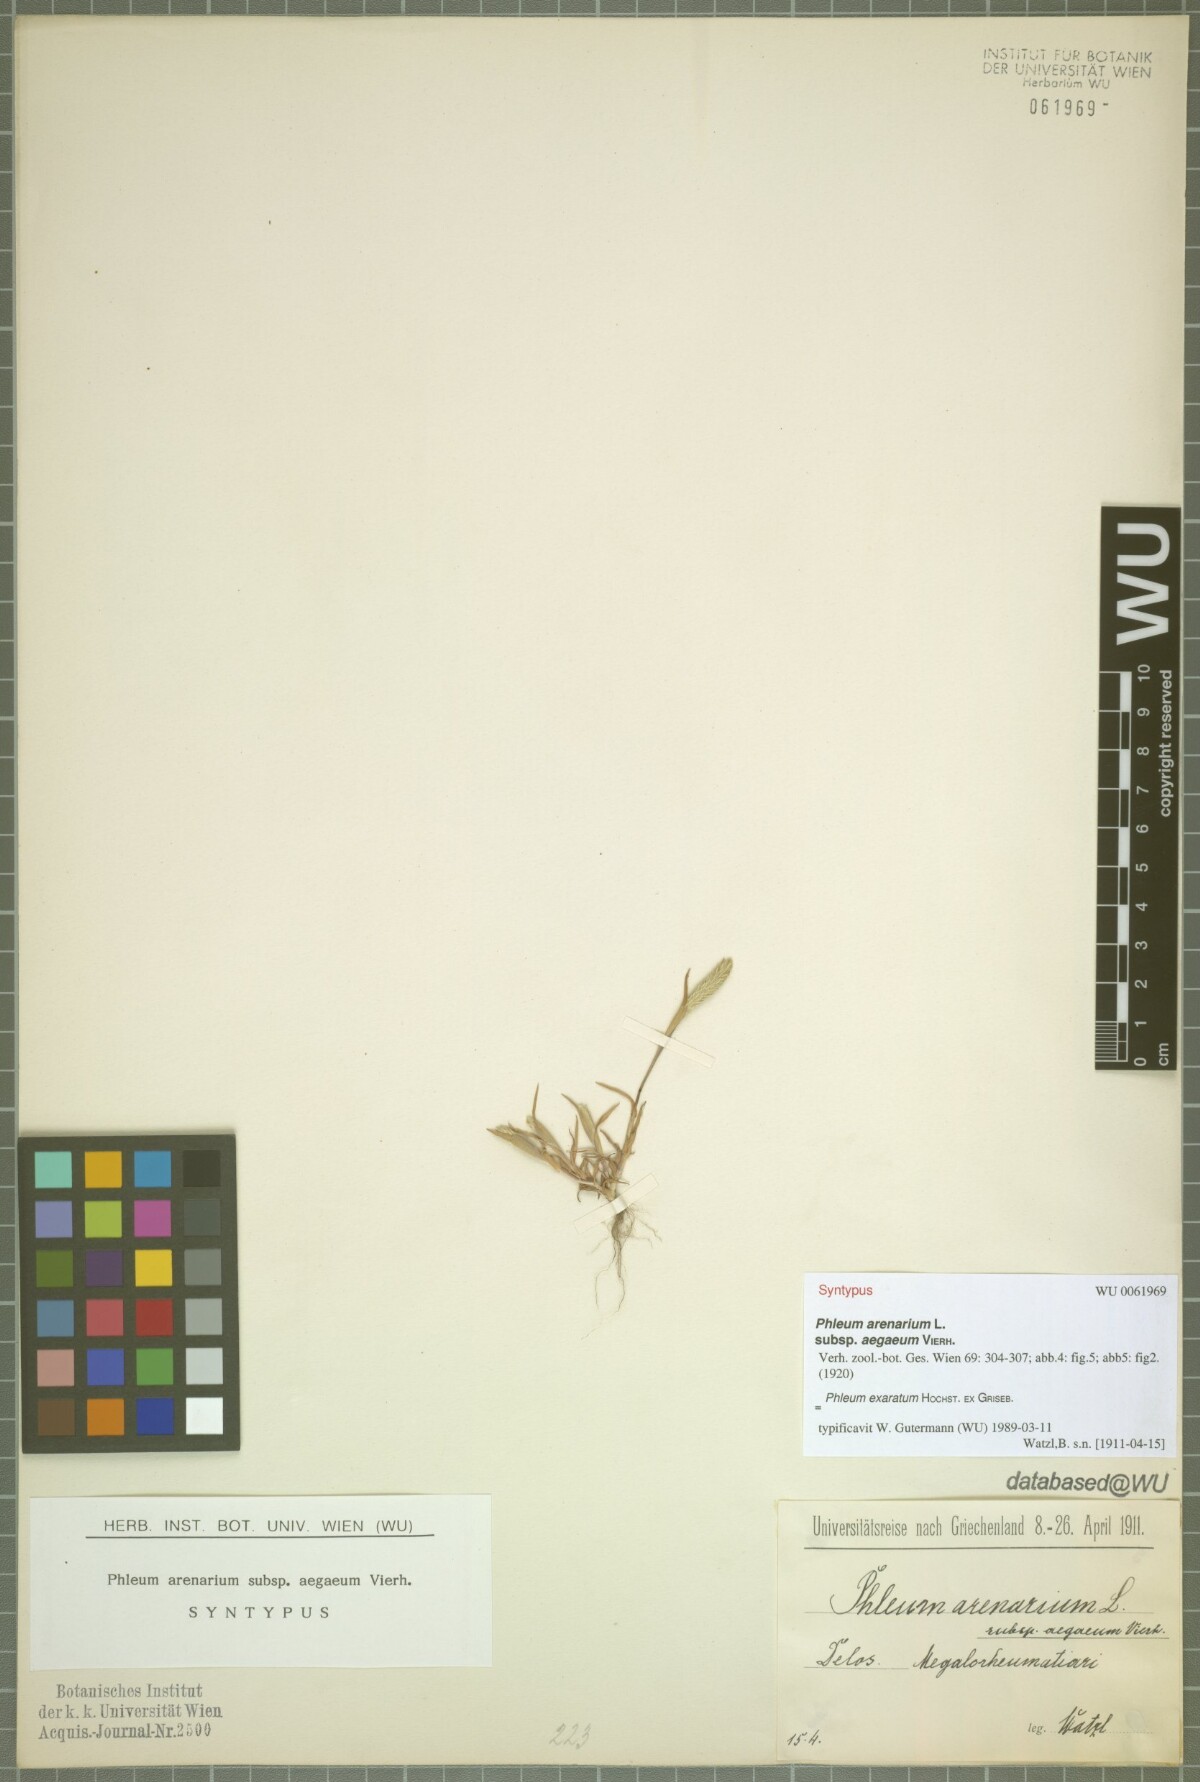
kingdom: Plantae
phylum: Tracheophyta
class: Liliopsida
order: Poales
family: Poaceae
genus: Phleum
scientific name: Phleum exaratum
